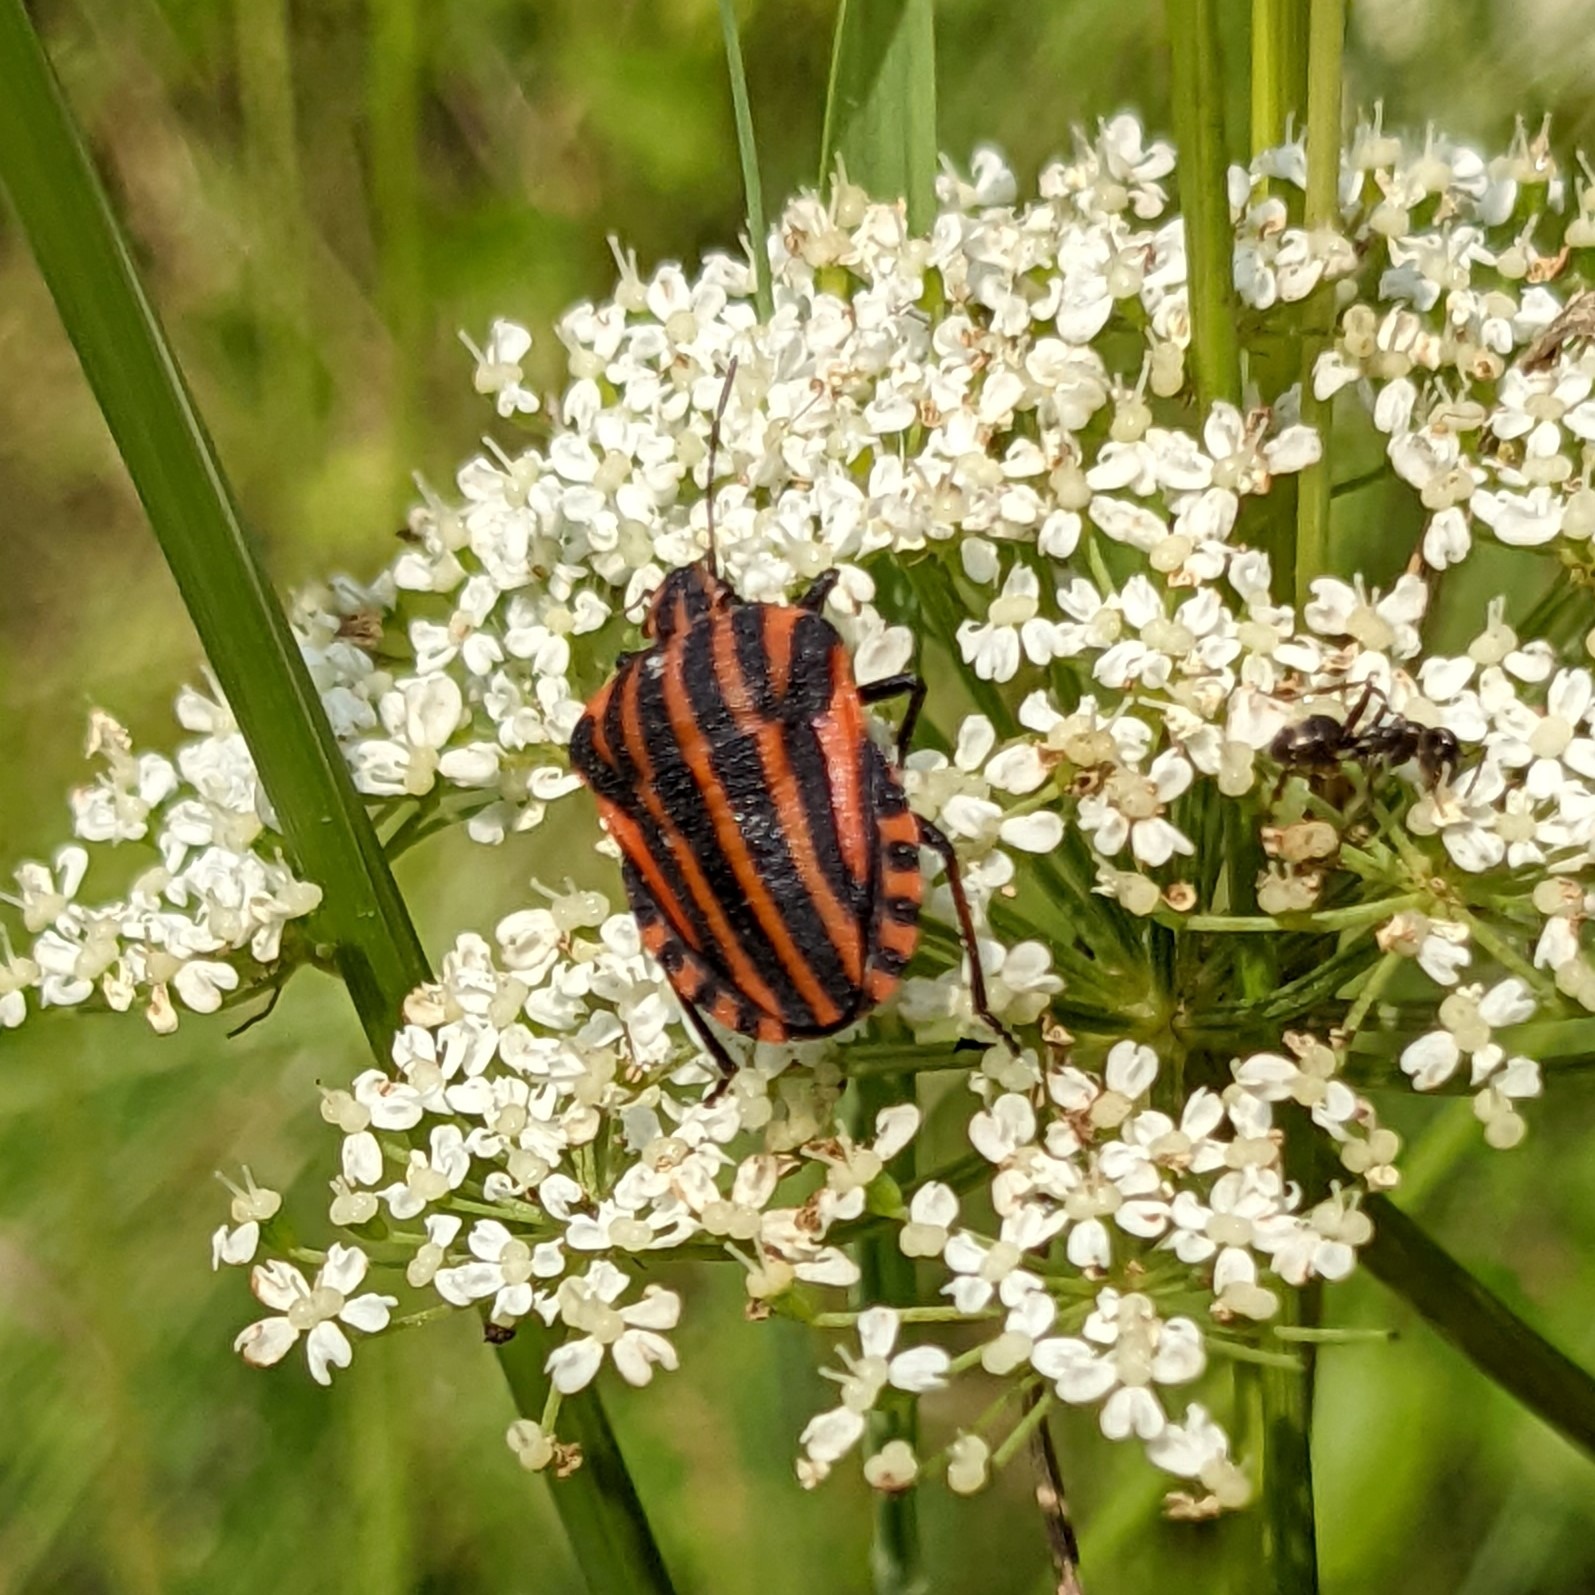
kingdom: Animalia
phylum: Arthropoda
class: Insecta
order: Hemiptera
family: Pentatomidae
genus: Graphosoma
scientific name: Graphosoma italicum
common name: Stribetæge
